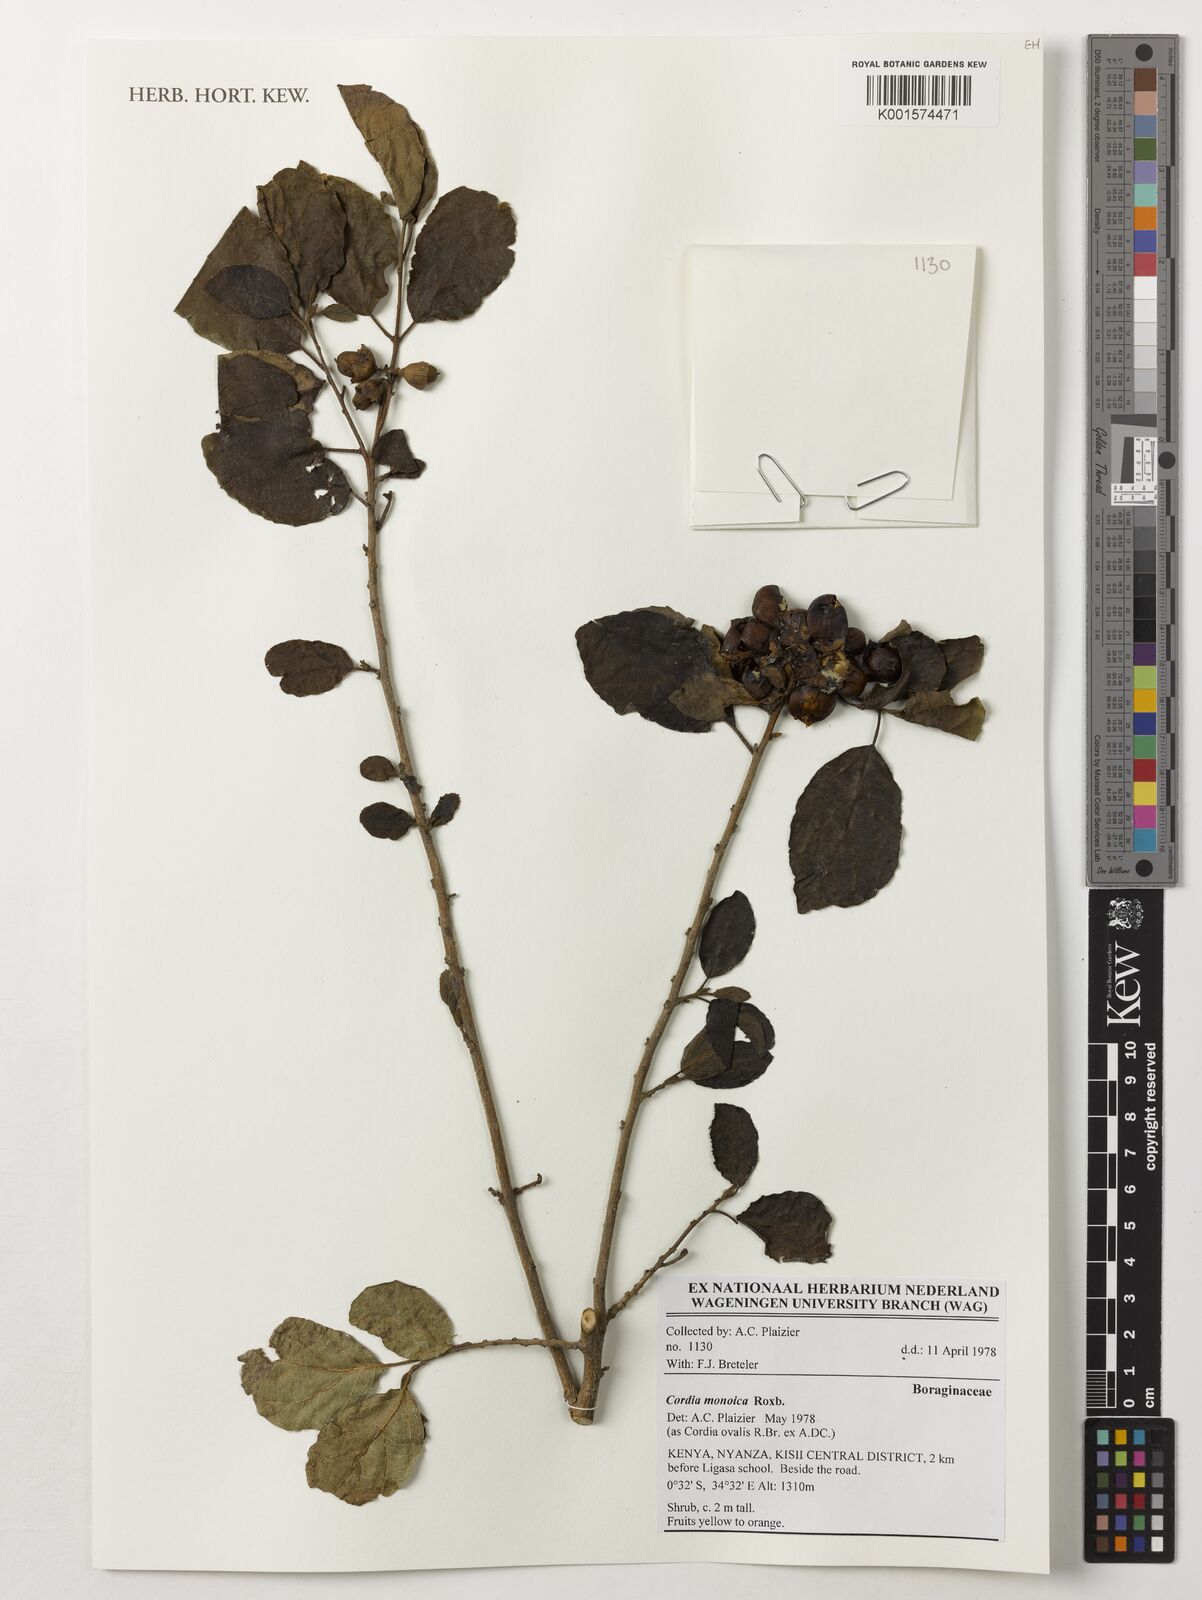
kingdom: Plantae
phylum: Tracheophyta
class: Magnoliopsida
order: Boraginales
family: Cordiaceae
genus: Cordia
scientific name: Cordia monoica
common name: Snot berry
